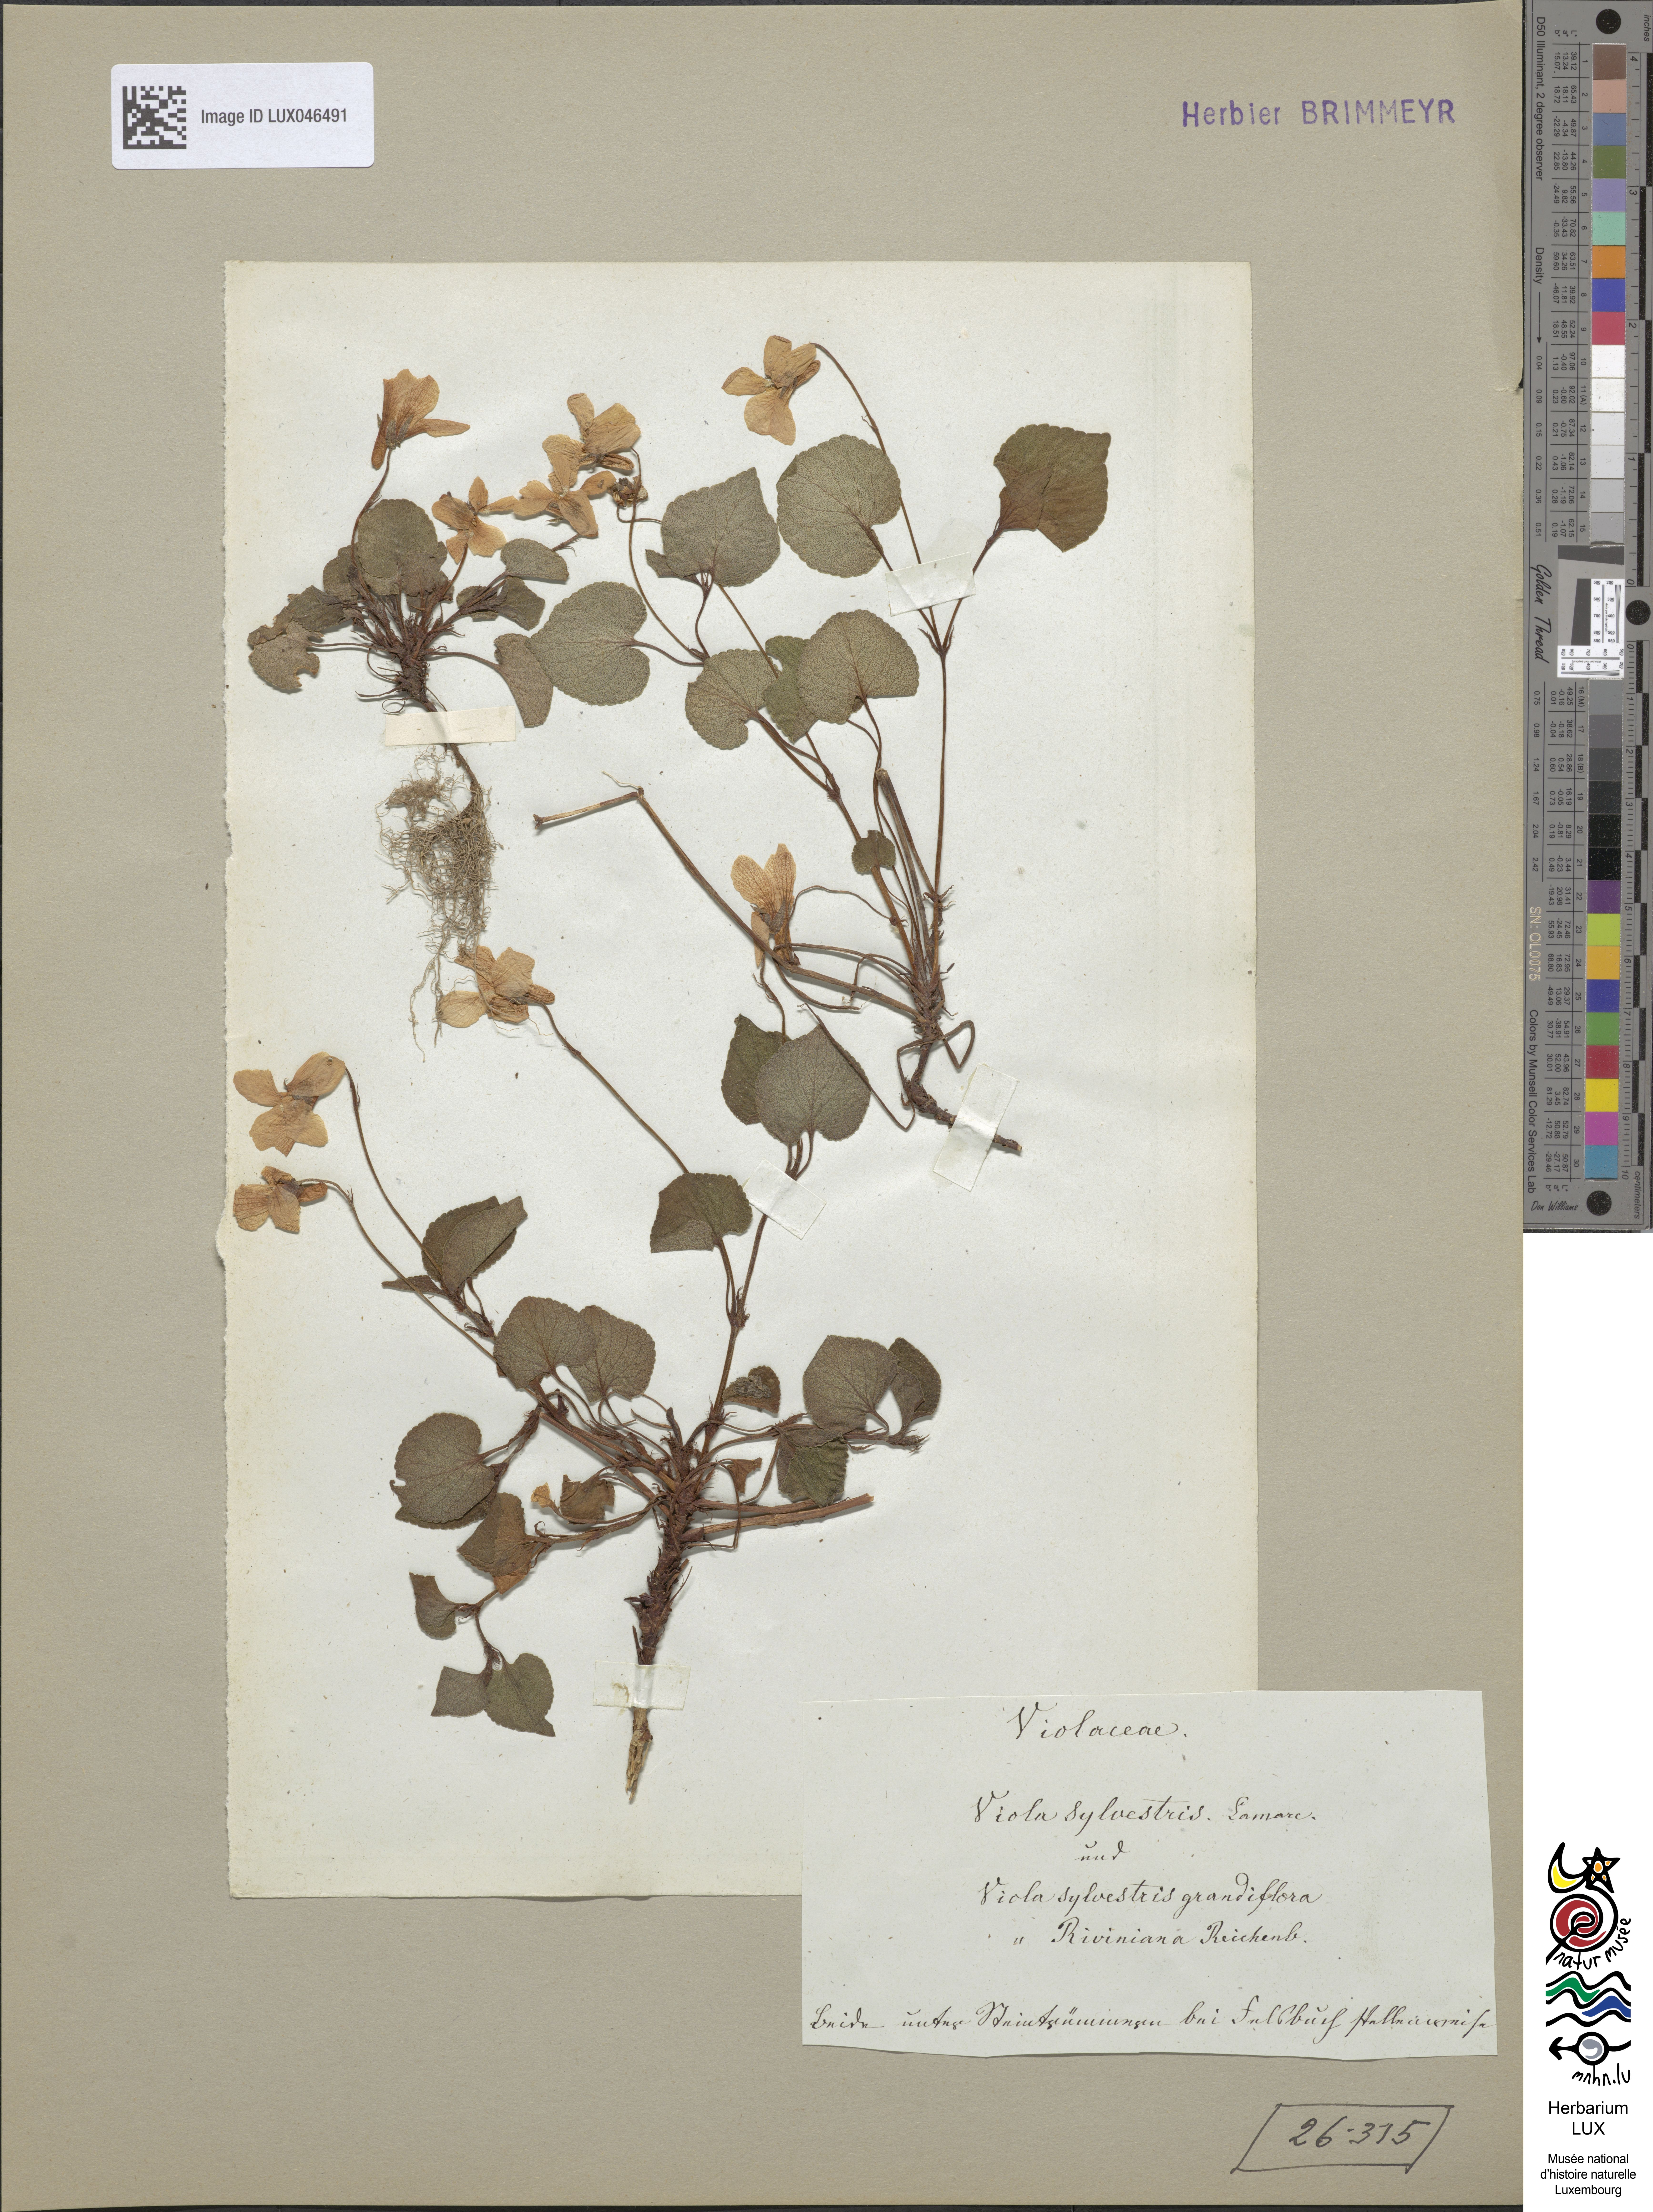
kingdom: Plantae
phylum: Tracheophyta
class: Magnoliopsida
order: Malpighiales
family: Violaceae
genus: Viola
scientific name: Viola reichenbachiana
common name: Early dog-violet
